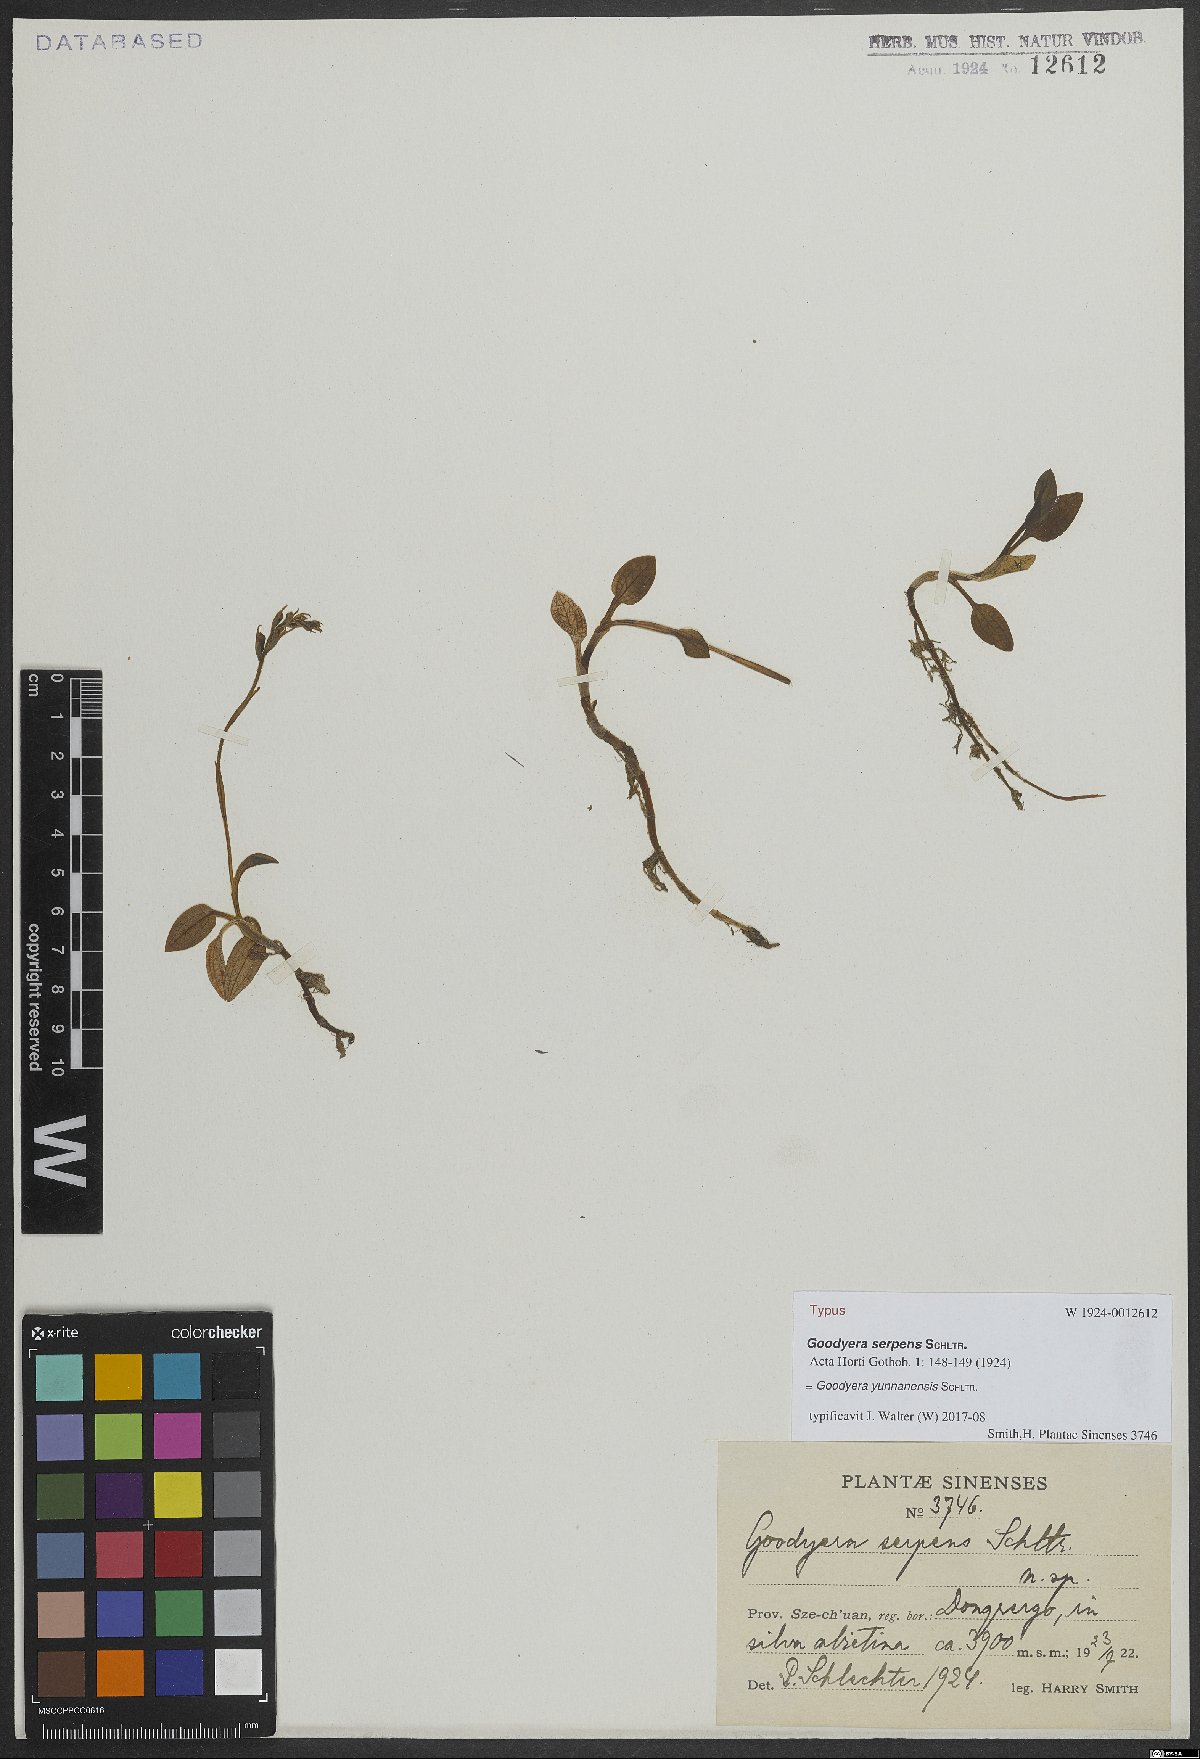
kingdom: Plantae
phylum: Tracheophyta
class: Liliopsida
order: Asparagales
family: Orchidaceae
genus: Goodyera
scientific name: Goodyera yunnanensis
